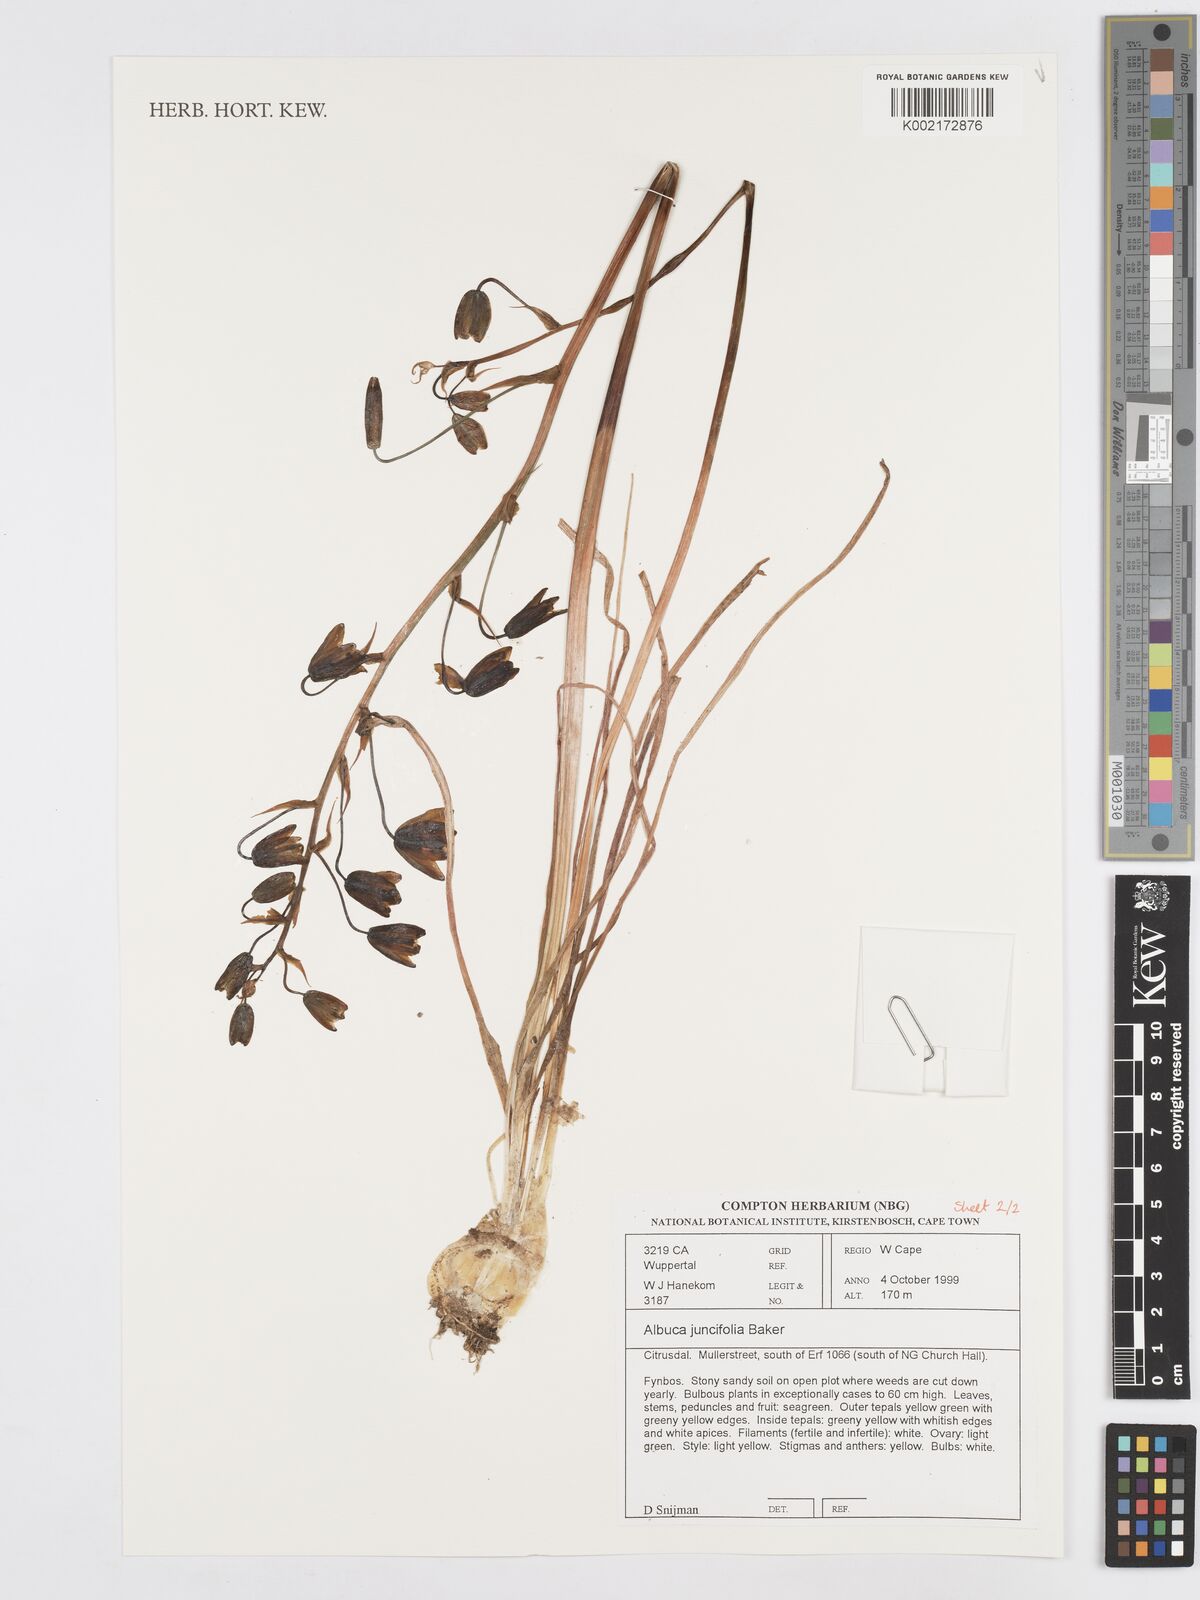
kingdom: Plantae
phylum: Tracheophyta
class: Liliopsida
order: Asparagales
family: Asparagaceae
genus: Albuca
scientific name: Albuca juncifolia
